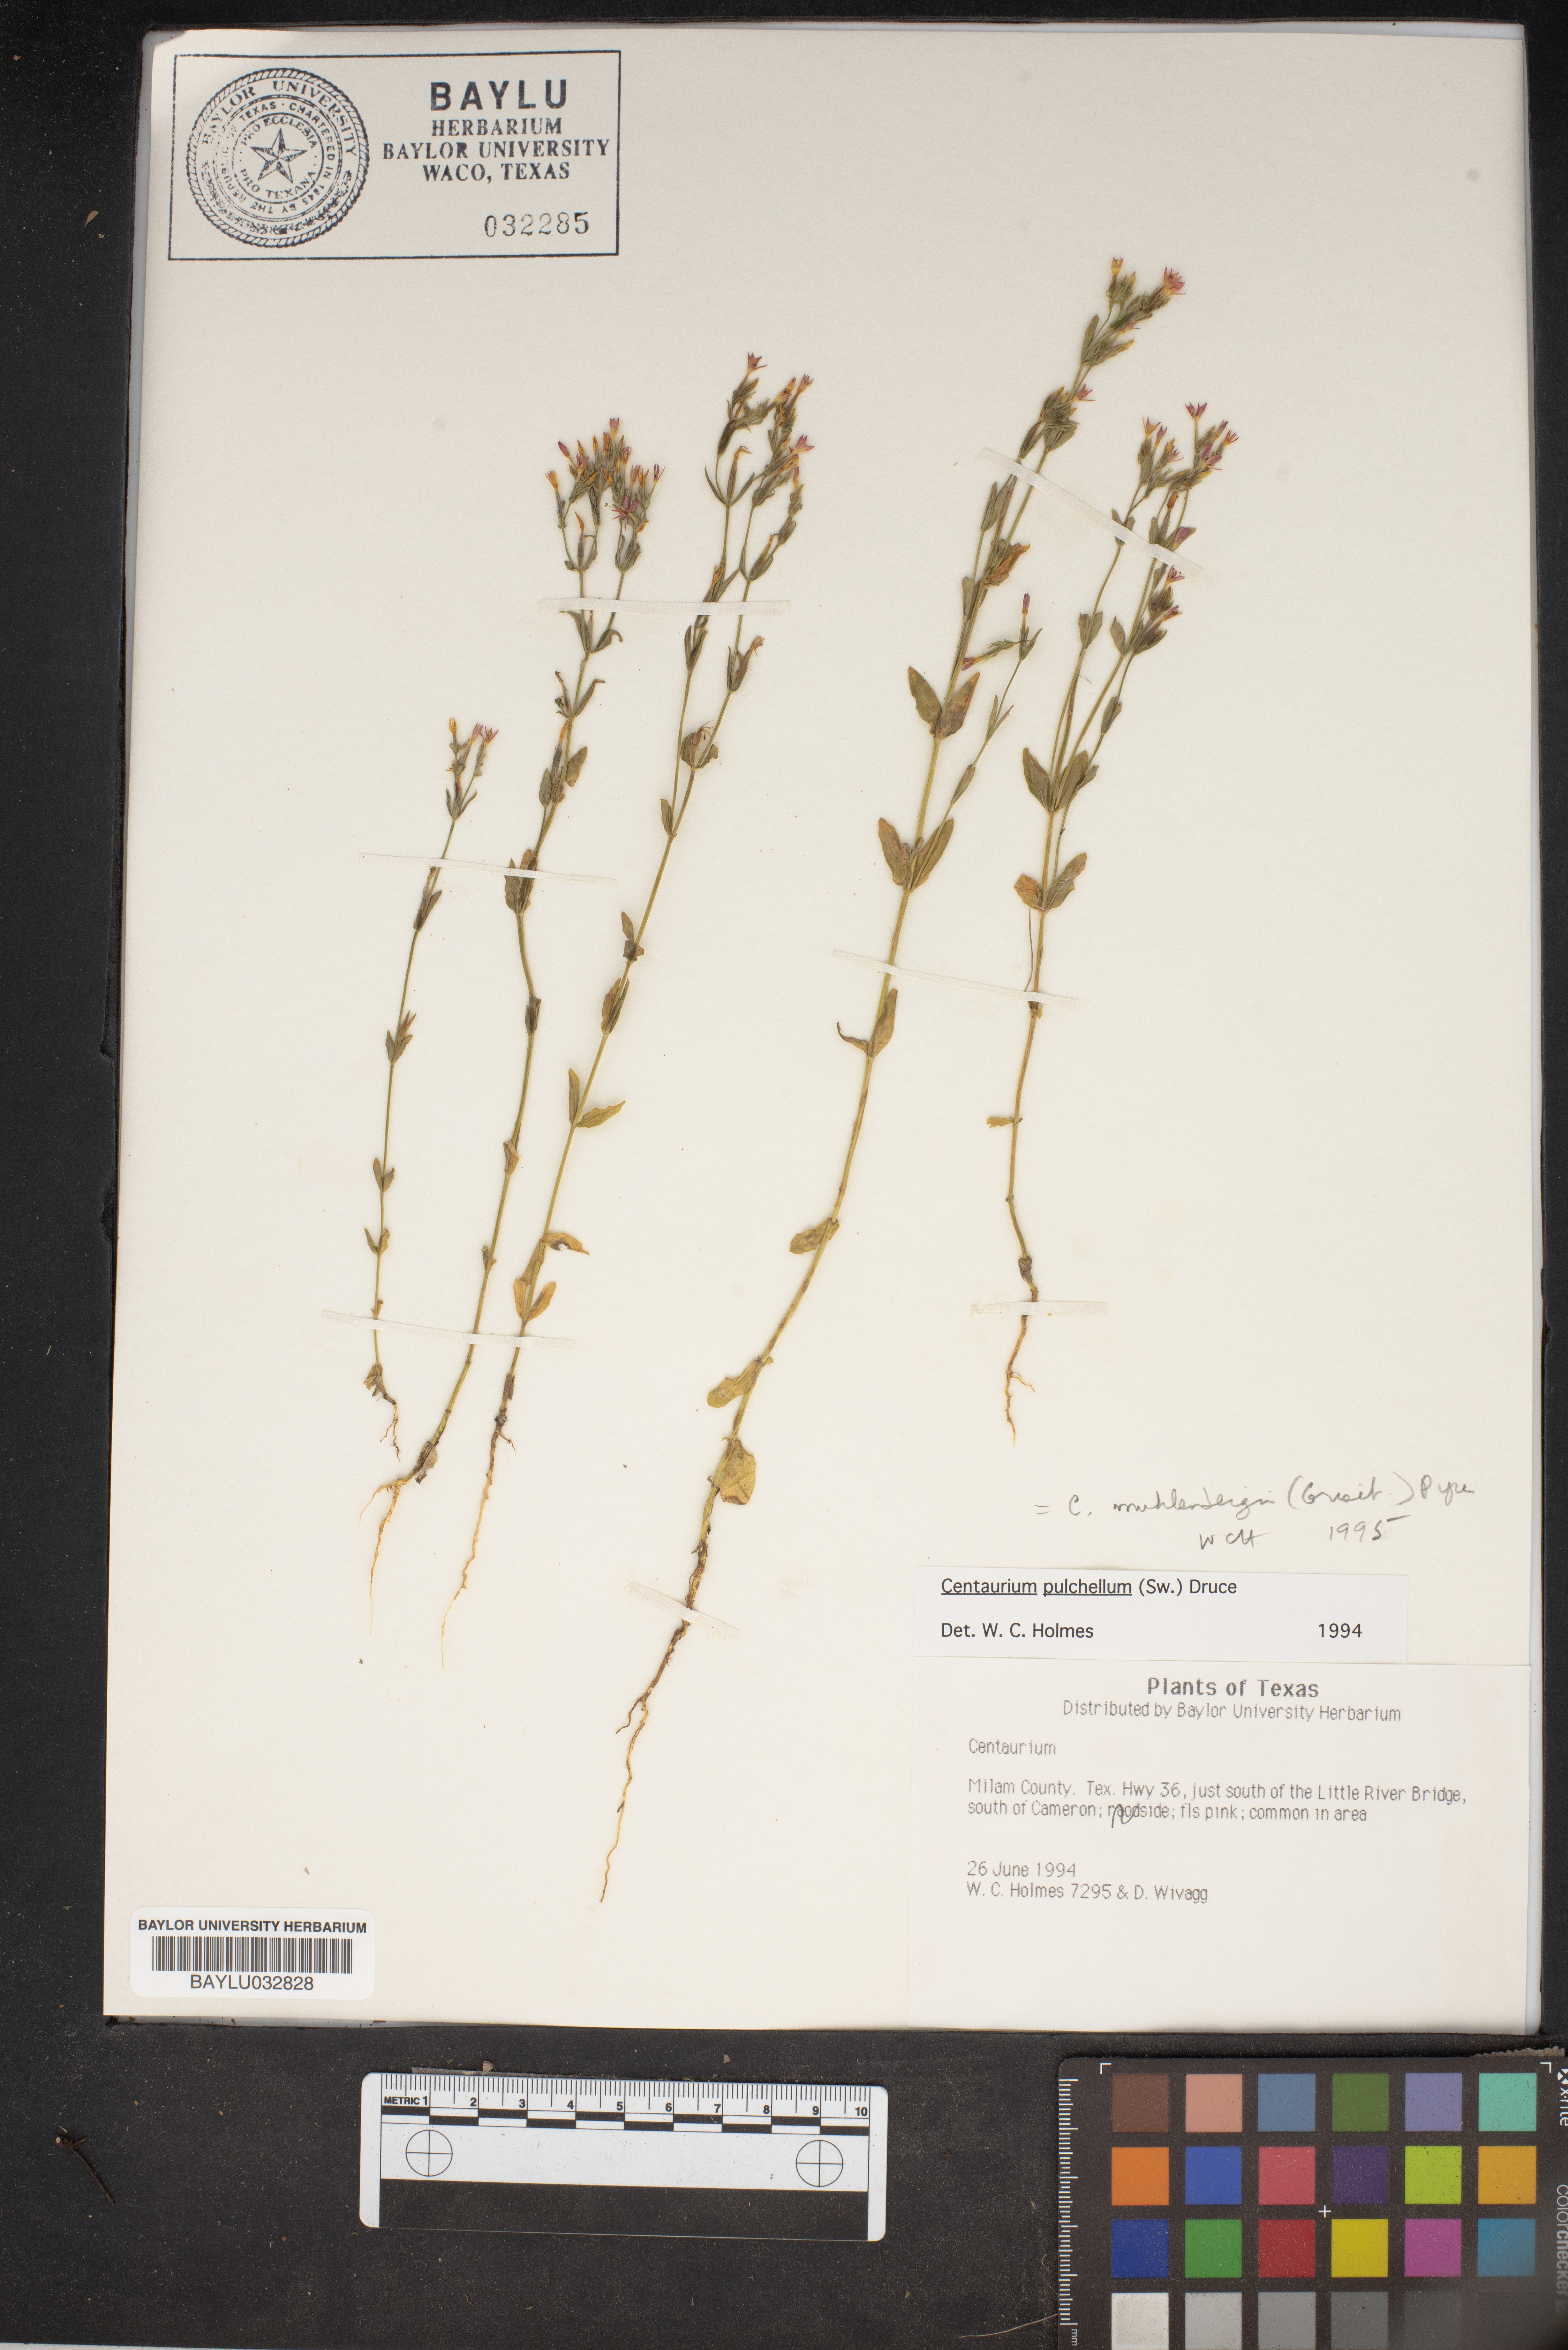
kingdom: Plantae
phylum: Tracheophyta
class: Magnoliopsida
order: Gentianales
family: Gentianaceae
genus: Centaurium
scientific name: Centaurium pulchellum
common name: Lesser centaury
